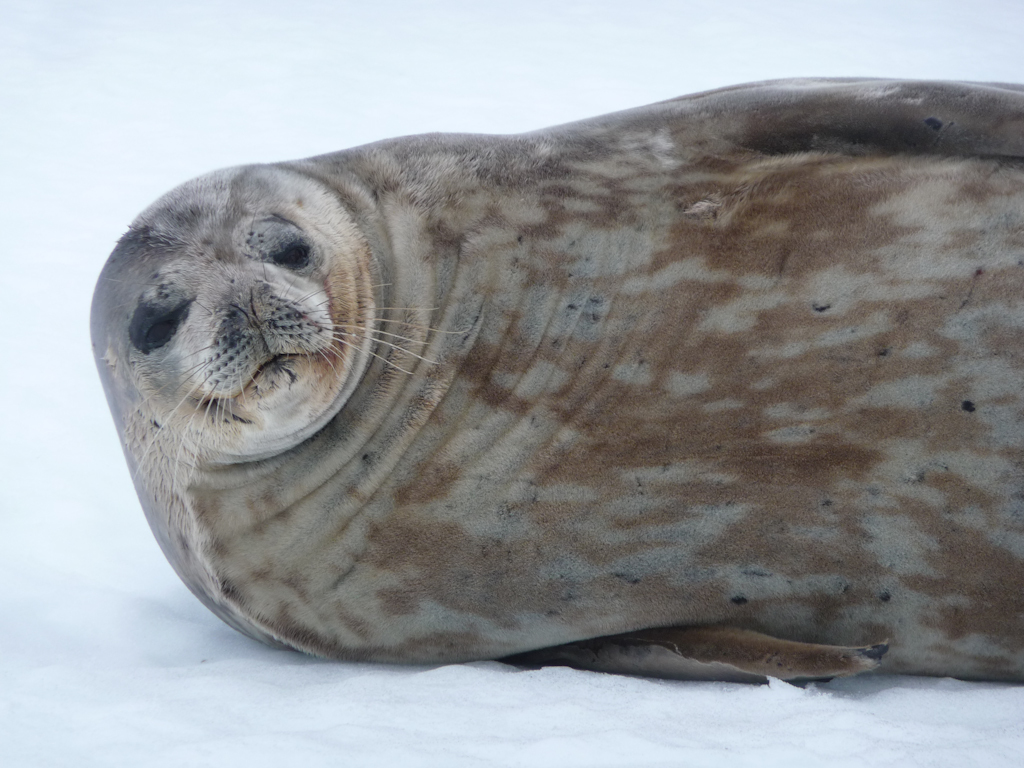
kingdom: Animalia
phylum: Chordata
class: Mammalia
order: Carnivora
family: Phocidae
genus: Leptonychotes
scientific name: Leptonychotes weddellii
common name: Weddell Seal
